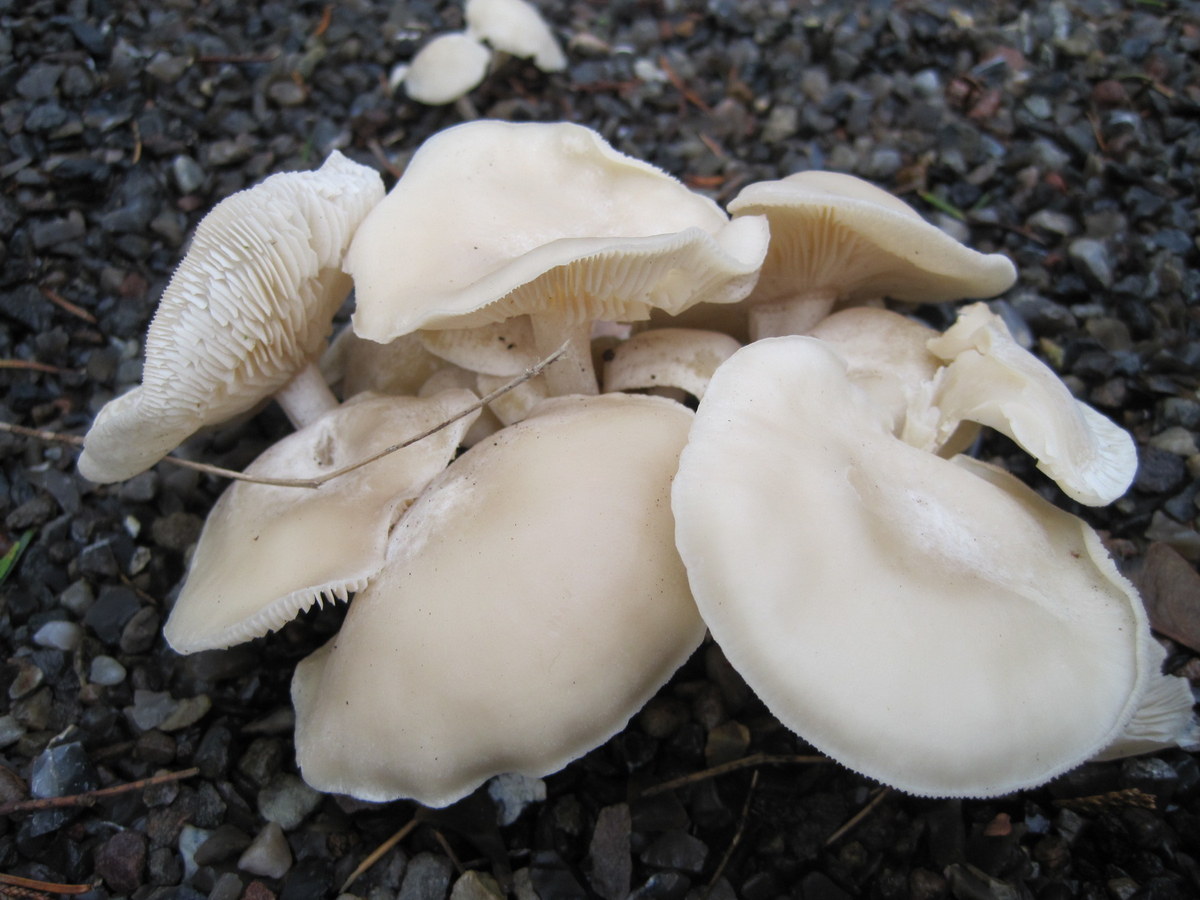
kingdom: Fungi
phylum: Basidiomycota
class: Agaricomycetes
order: Agaricales
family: Tricholomataceae
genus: Leucocybe
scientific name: Leucocybe connata
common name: knippe-tragthat
